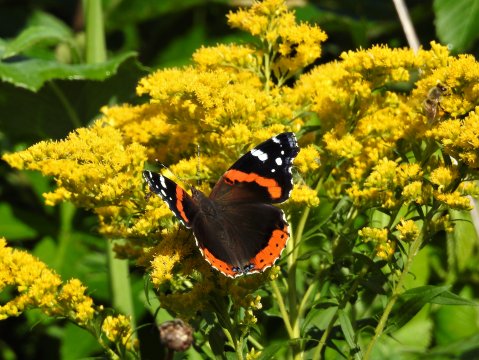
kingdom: Animalia
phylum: Arthropoda
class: Insecta
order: Lepidoptera
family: Nymphalidae
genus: Limenitis
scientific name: Limenitis arthemis
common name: Red-spotted Admiral
